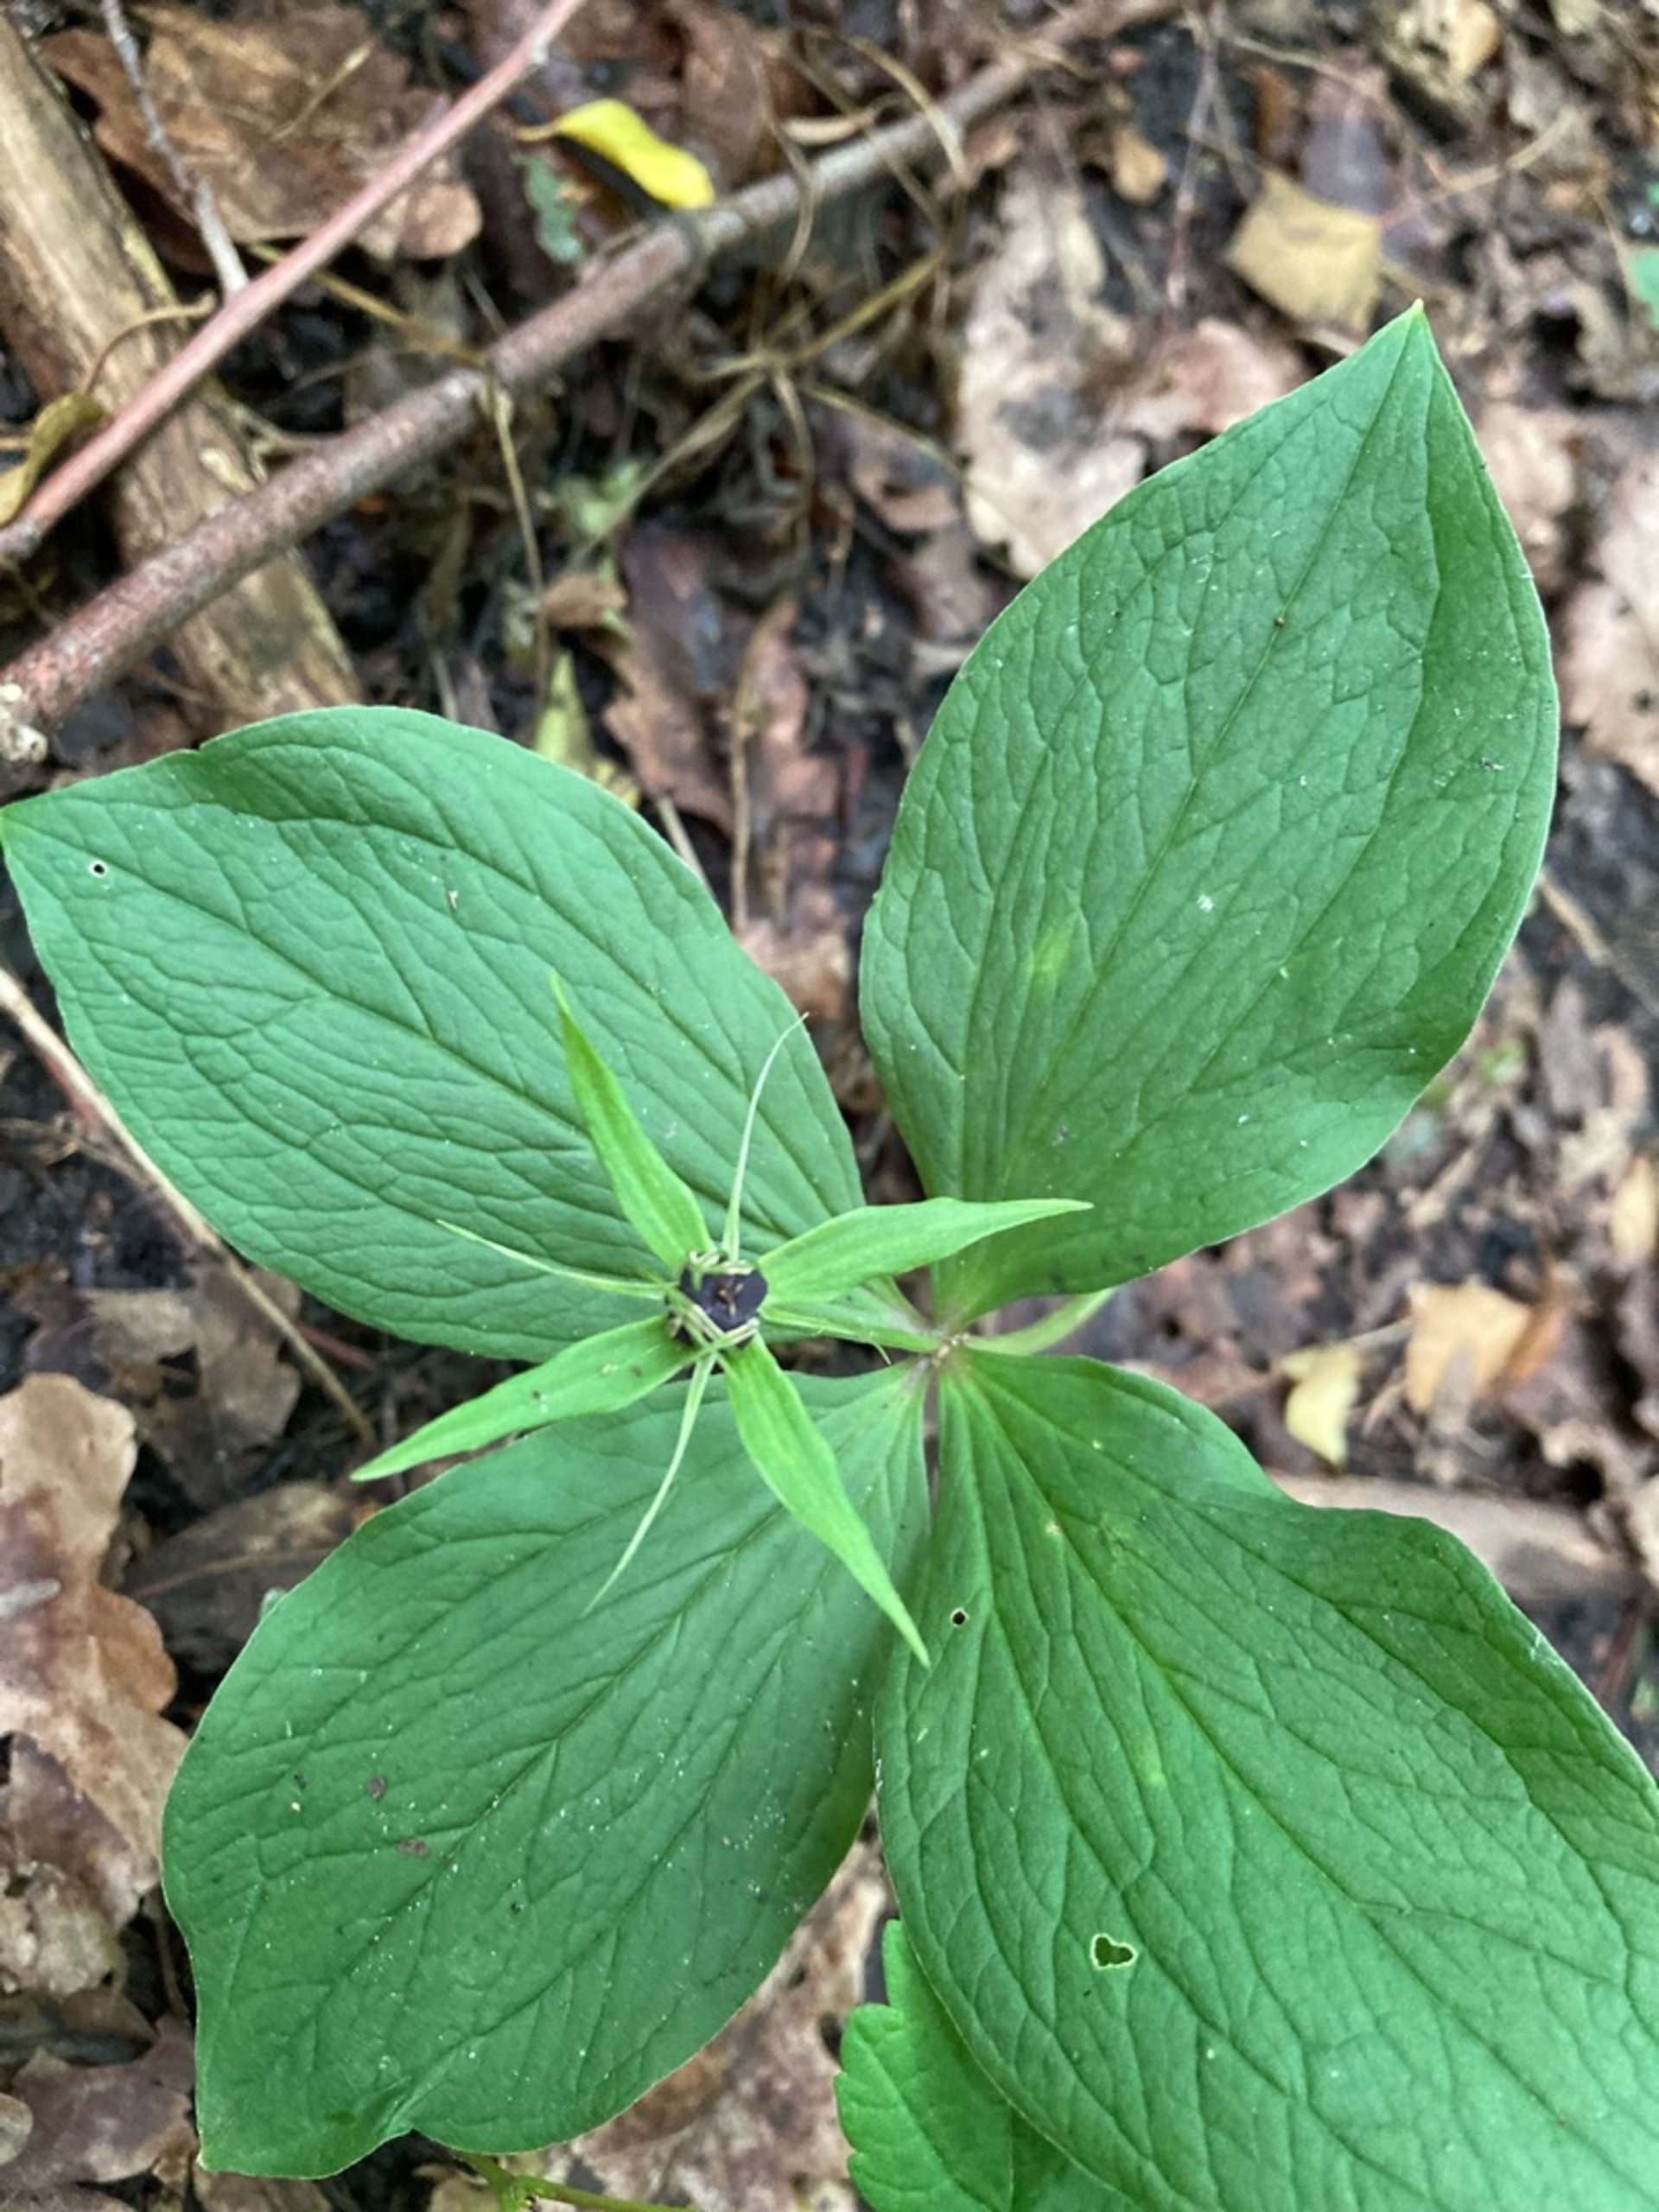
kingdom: Plantae
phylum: Tracheophyta
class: Liliopsida
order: Liliales
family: Melanthiaceae
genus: Paris
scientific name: Paris quadrifolia
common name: Firblad
